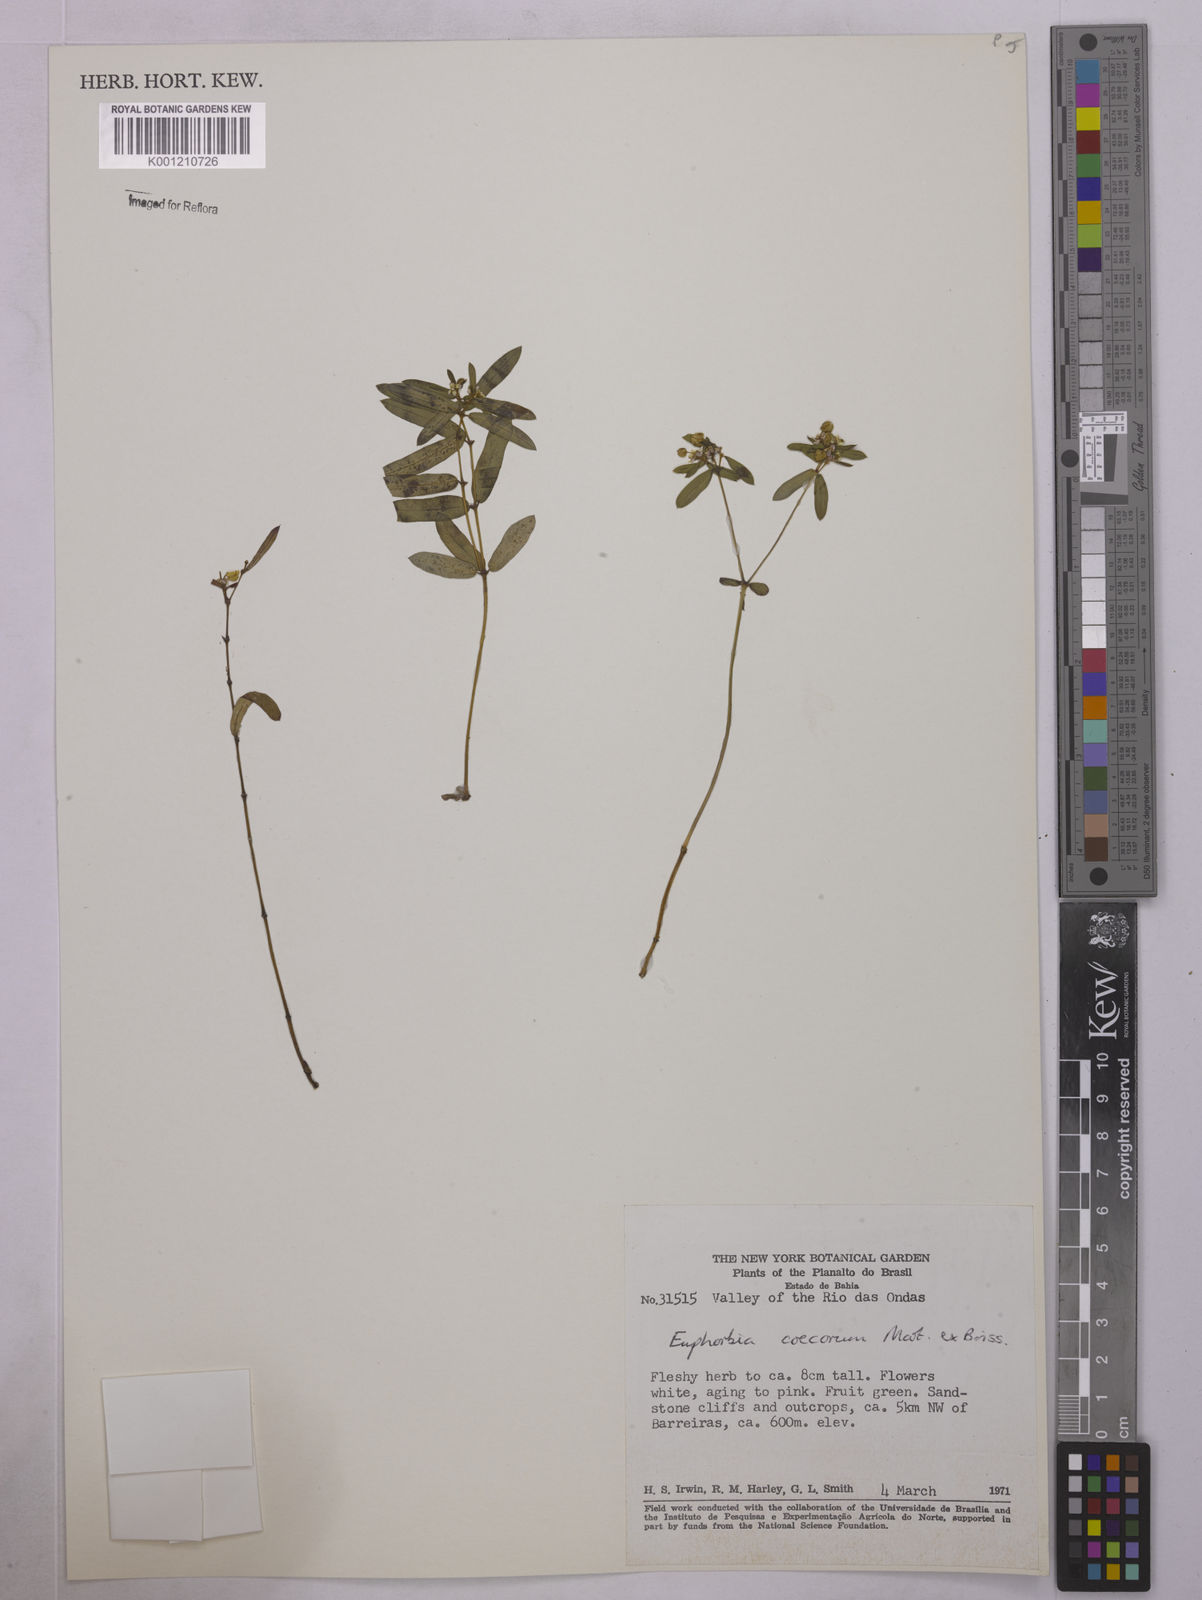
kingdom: Plantae
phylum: Tracheophyta
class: Magnoliopsida
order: Malpighiales
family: Euphorbiaceae
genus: Euphorbia
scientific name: Euphorbia potentilloides
